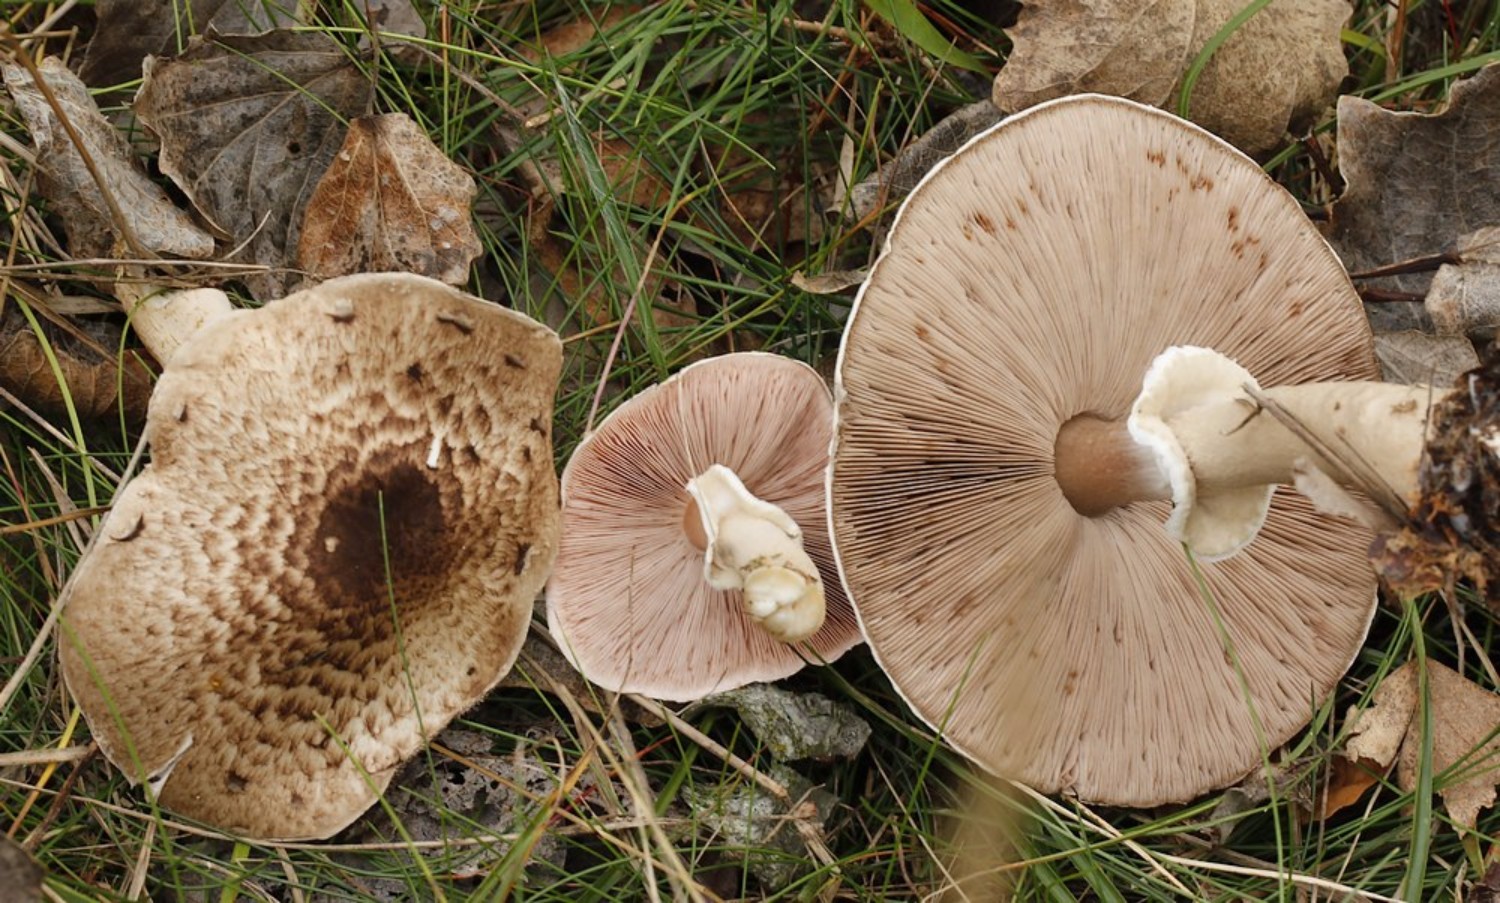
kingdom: Fungi
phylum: Basidiomycota
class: Agaricomycetes
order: Agaricales
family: Agaricaceae
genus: Agaricus
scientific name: Agaricus impudicus
